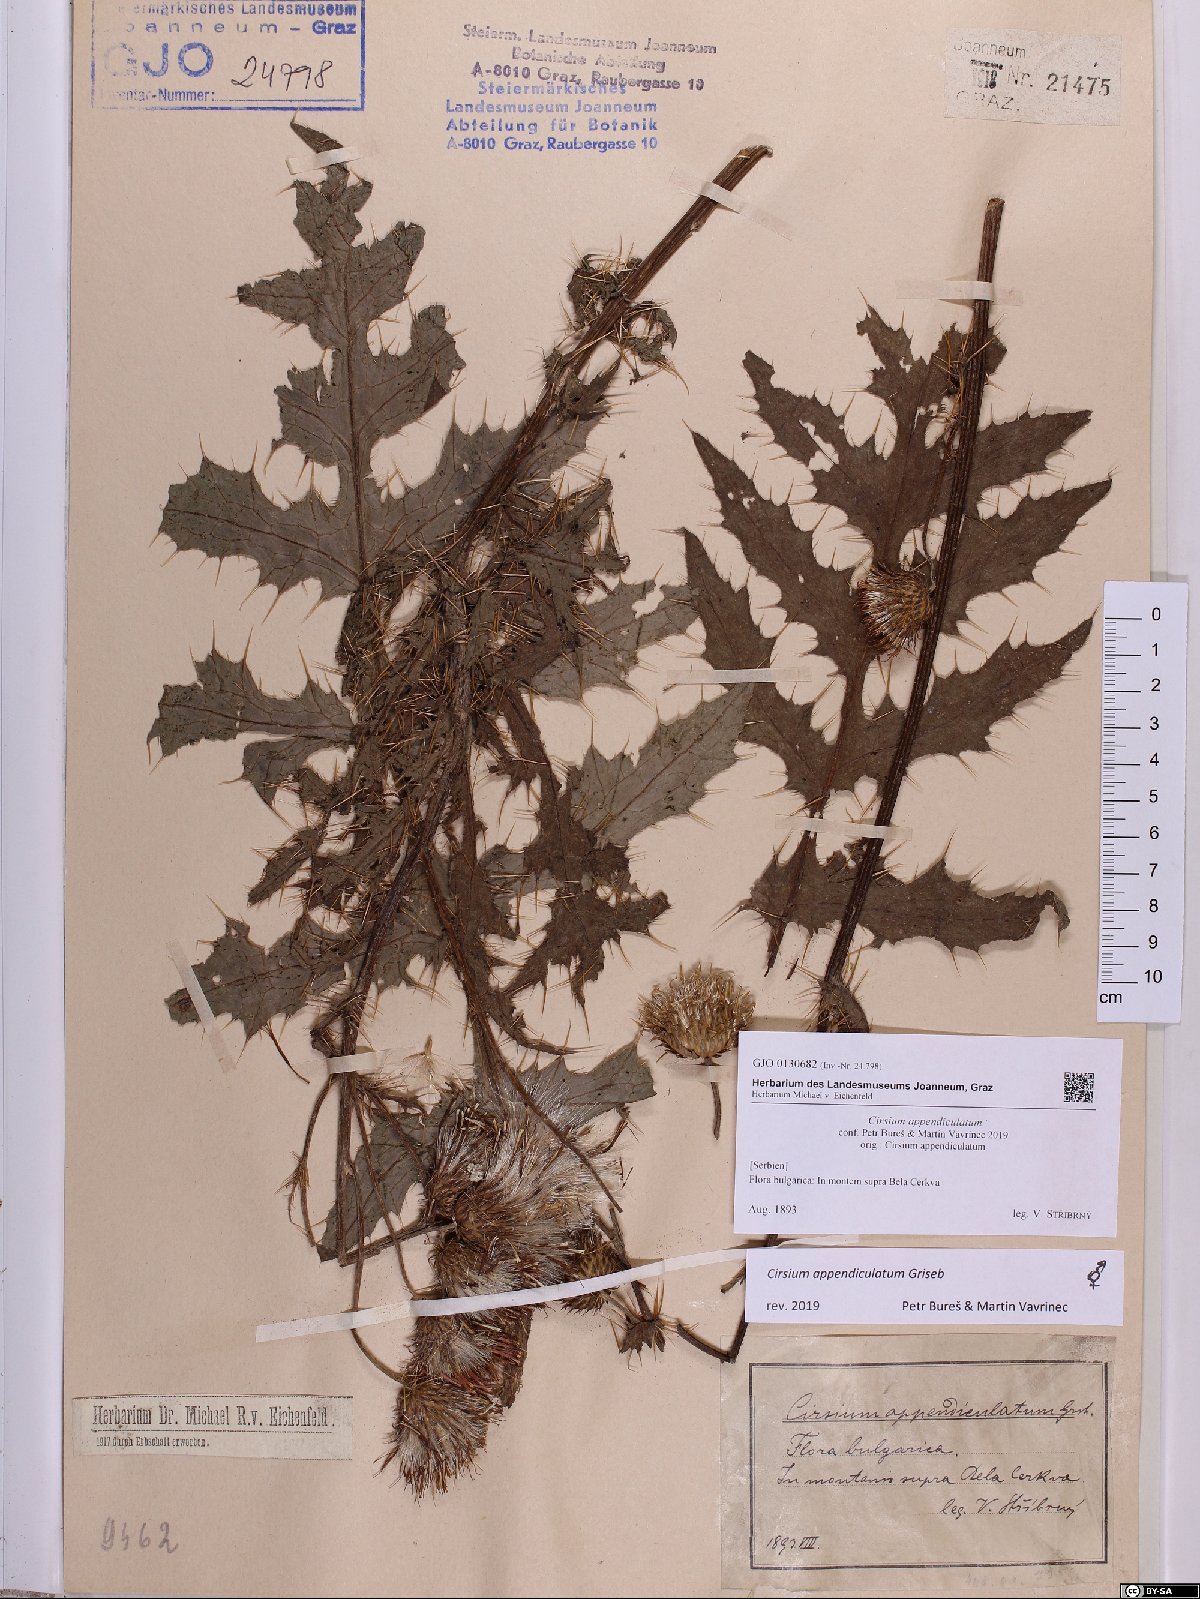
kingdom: Plantae
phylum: Tracheophyta
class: Magnoliopsida
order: Asterales
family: Asteraceae
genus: Cirsium
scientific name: Cirsium appendiculatum
